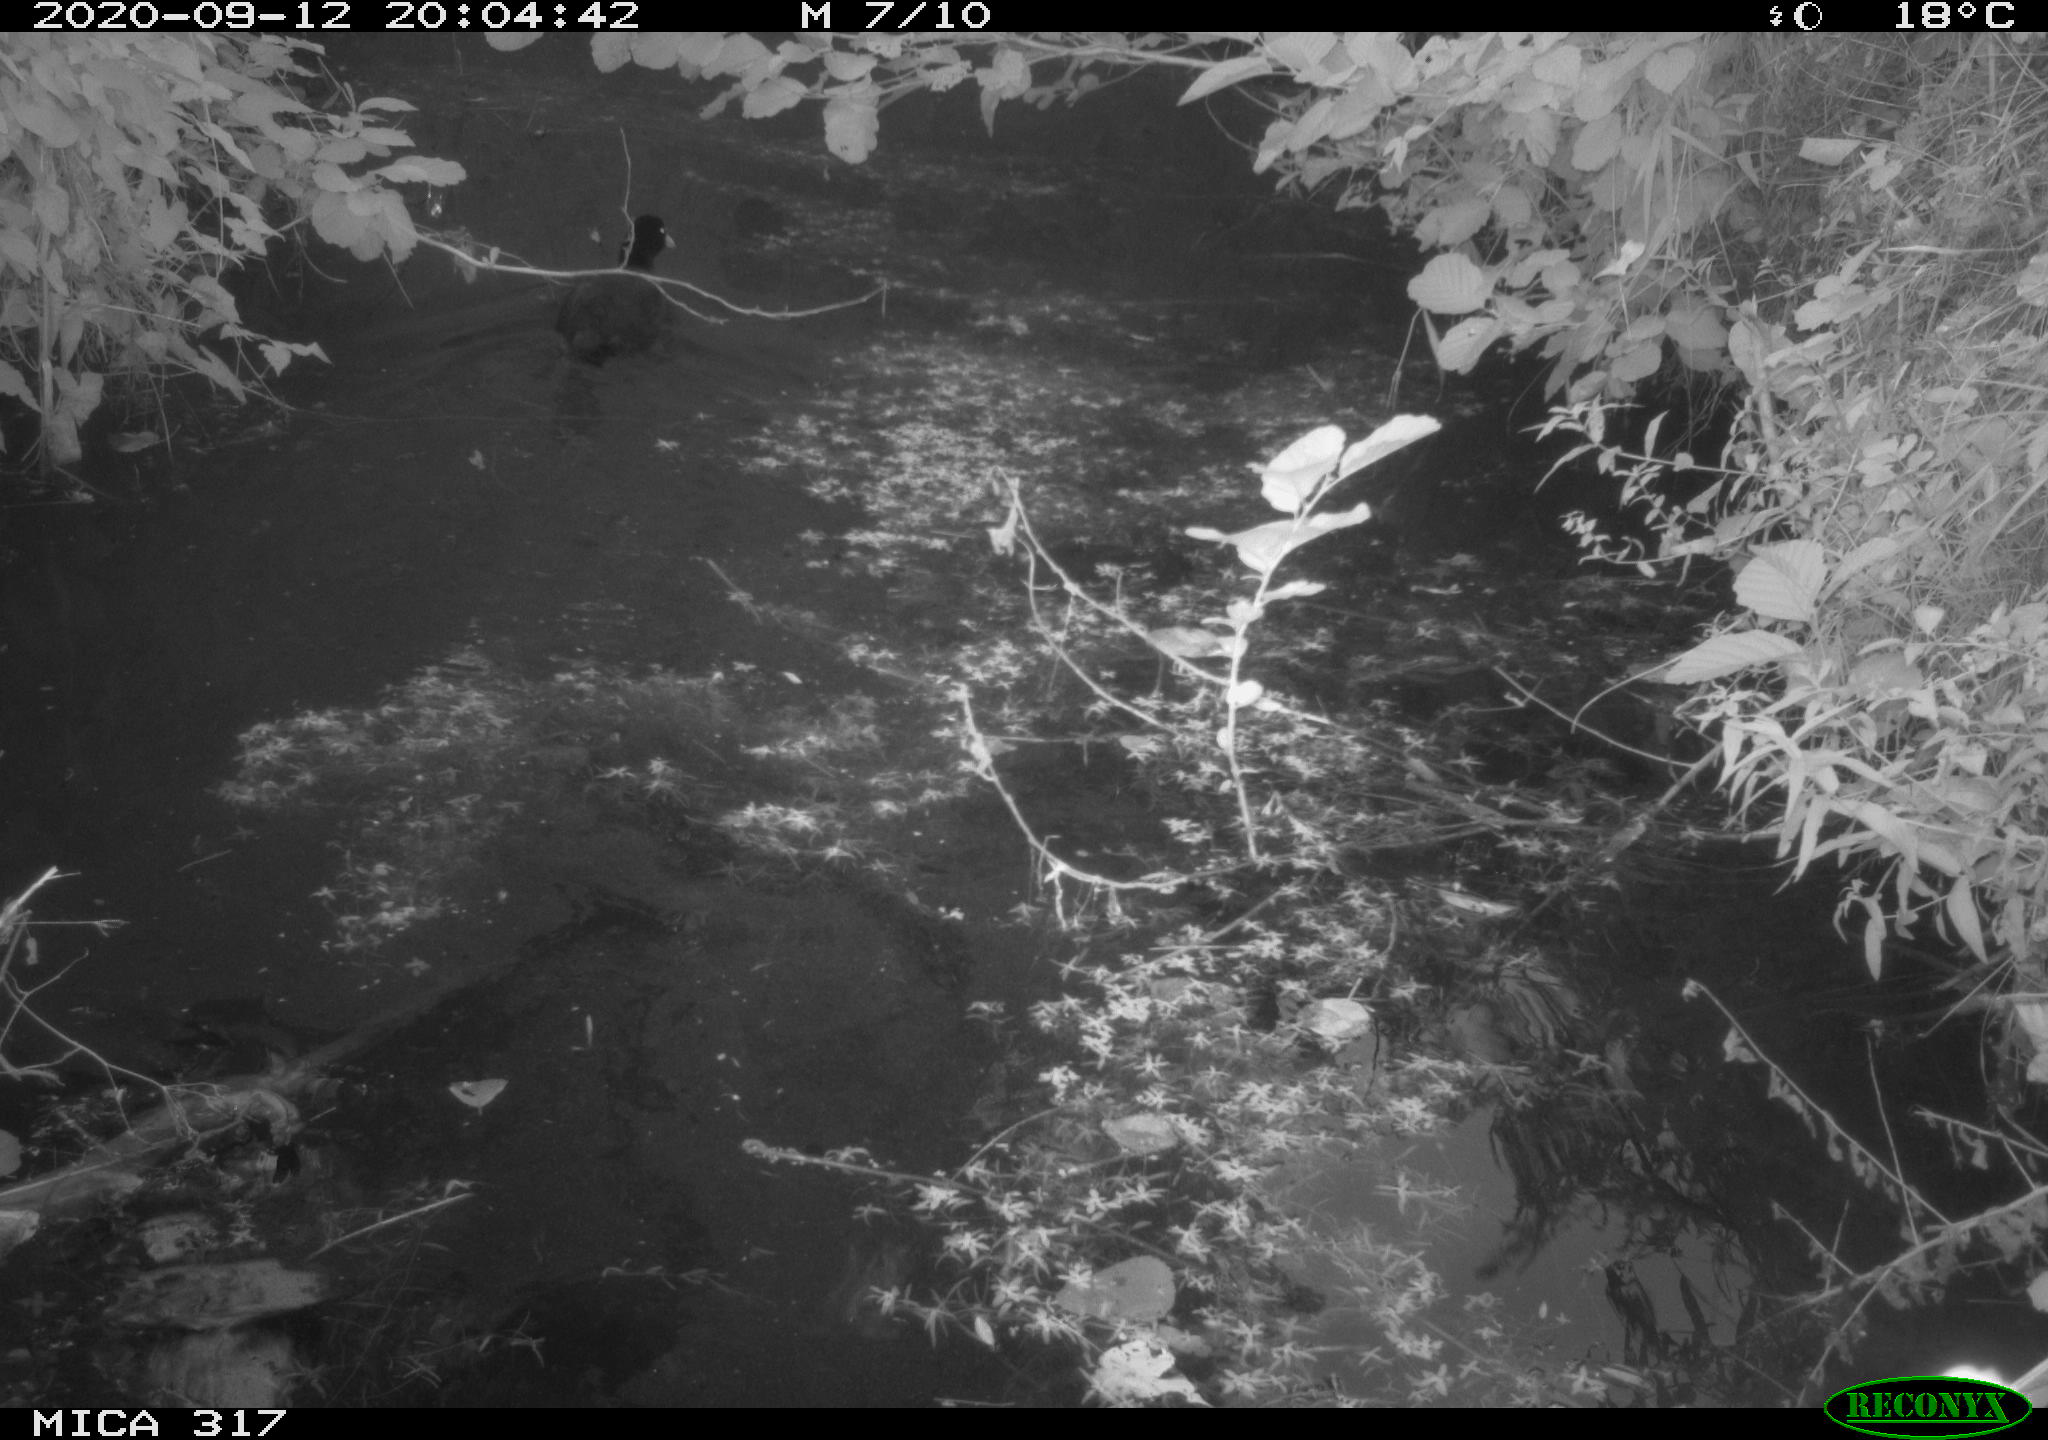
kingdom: Animalia
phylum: Chordata
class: Aves
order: Gruiformes
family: Rallidae
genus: Fulica
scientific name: Fulica atra
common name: Eurasian coot
